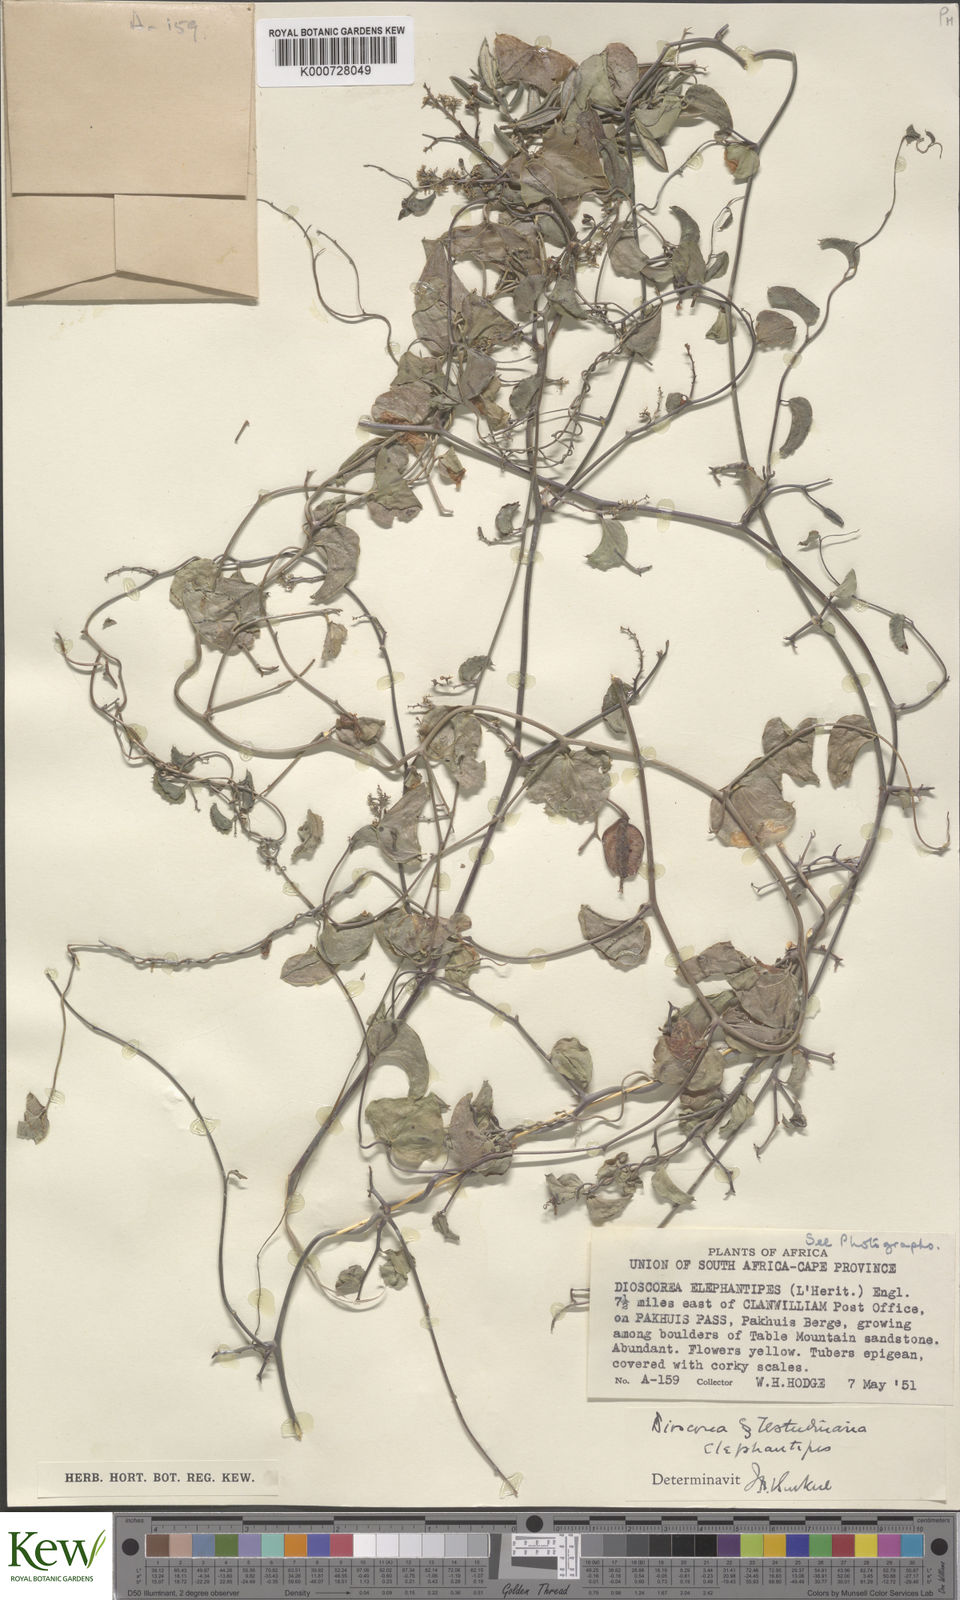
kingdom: Plantae
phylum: Tracheophyta
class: Liliopsida
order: Dioscoreales
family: Dioscoreaceae
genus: Dioscorea
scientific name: Dioscorea
